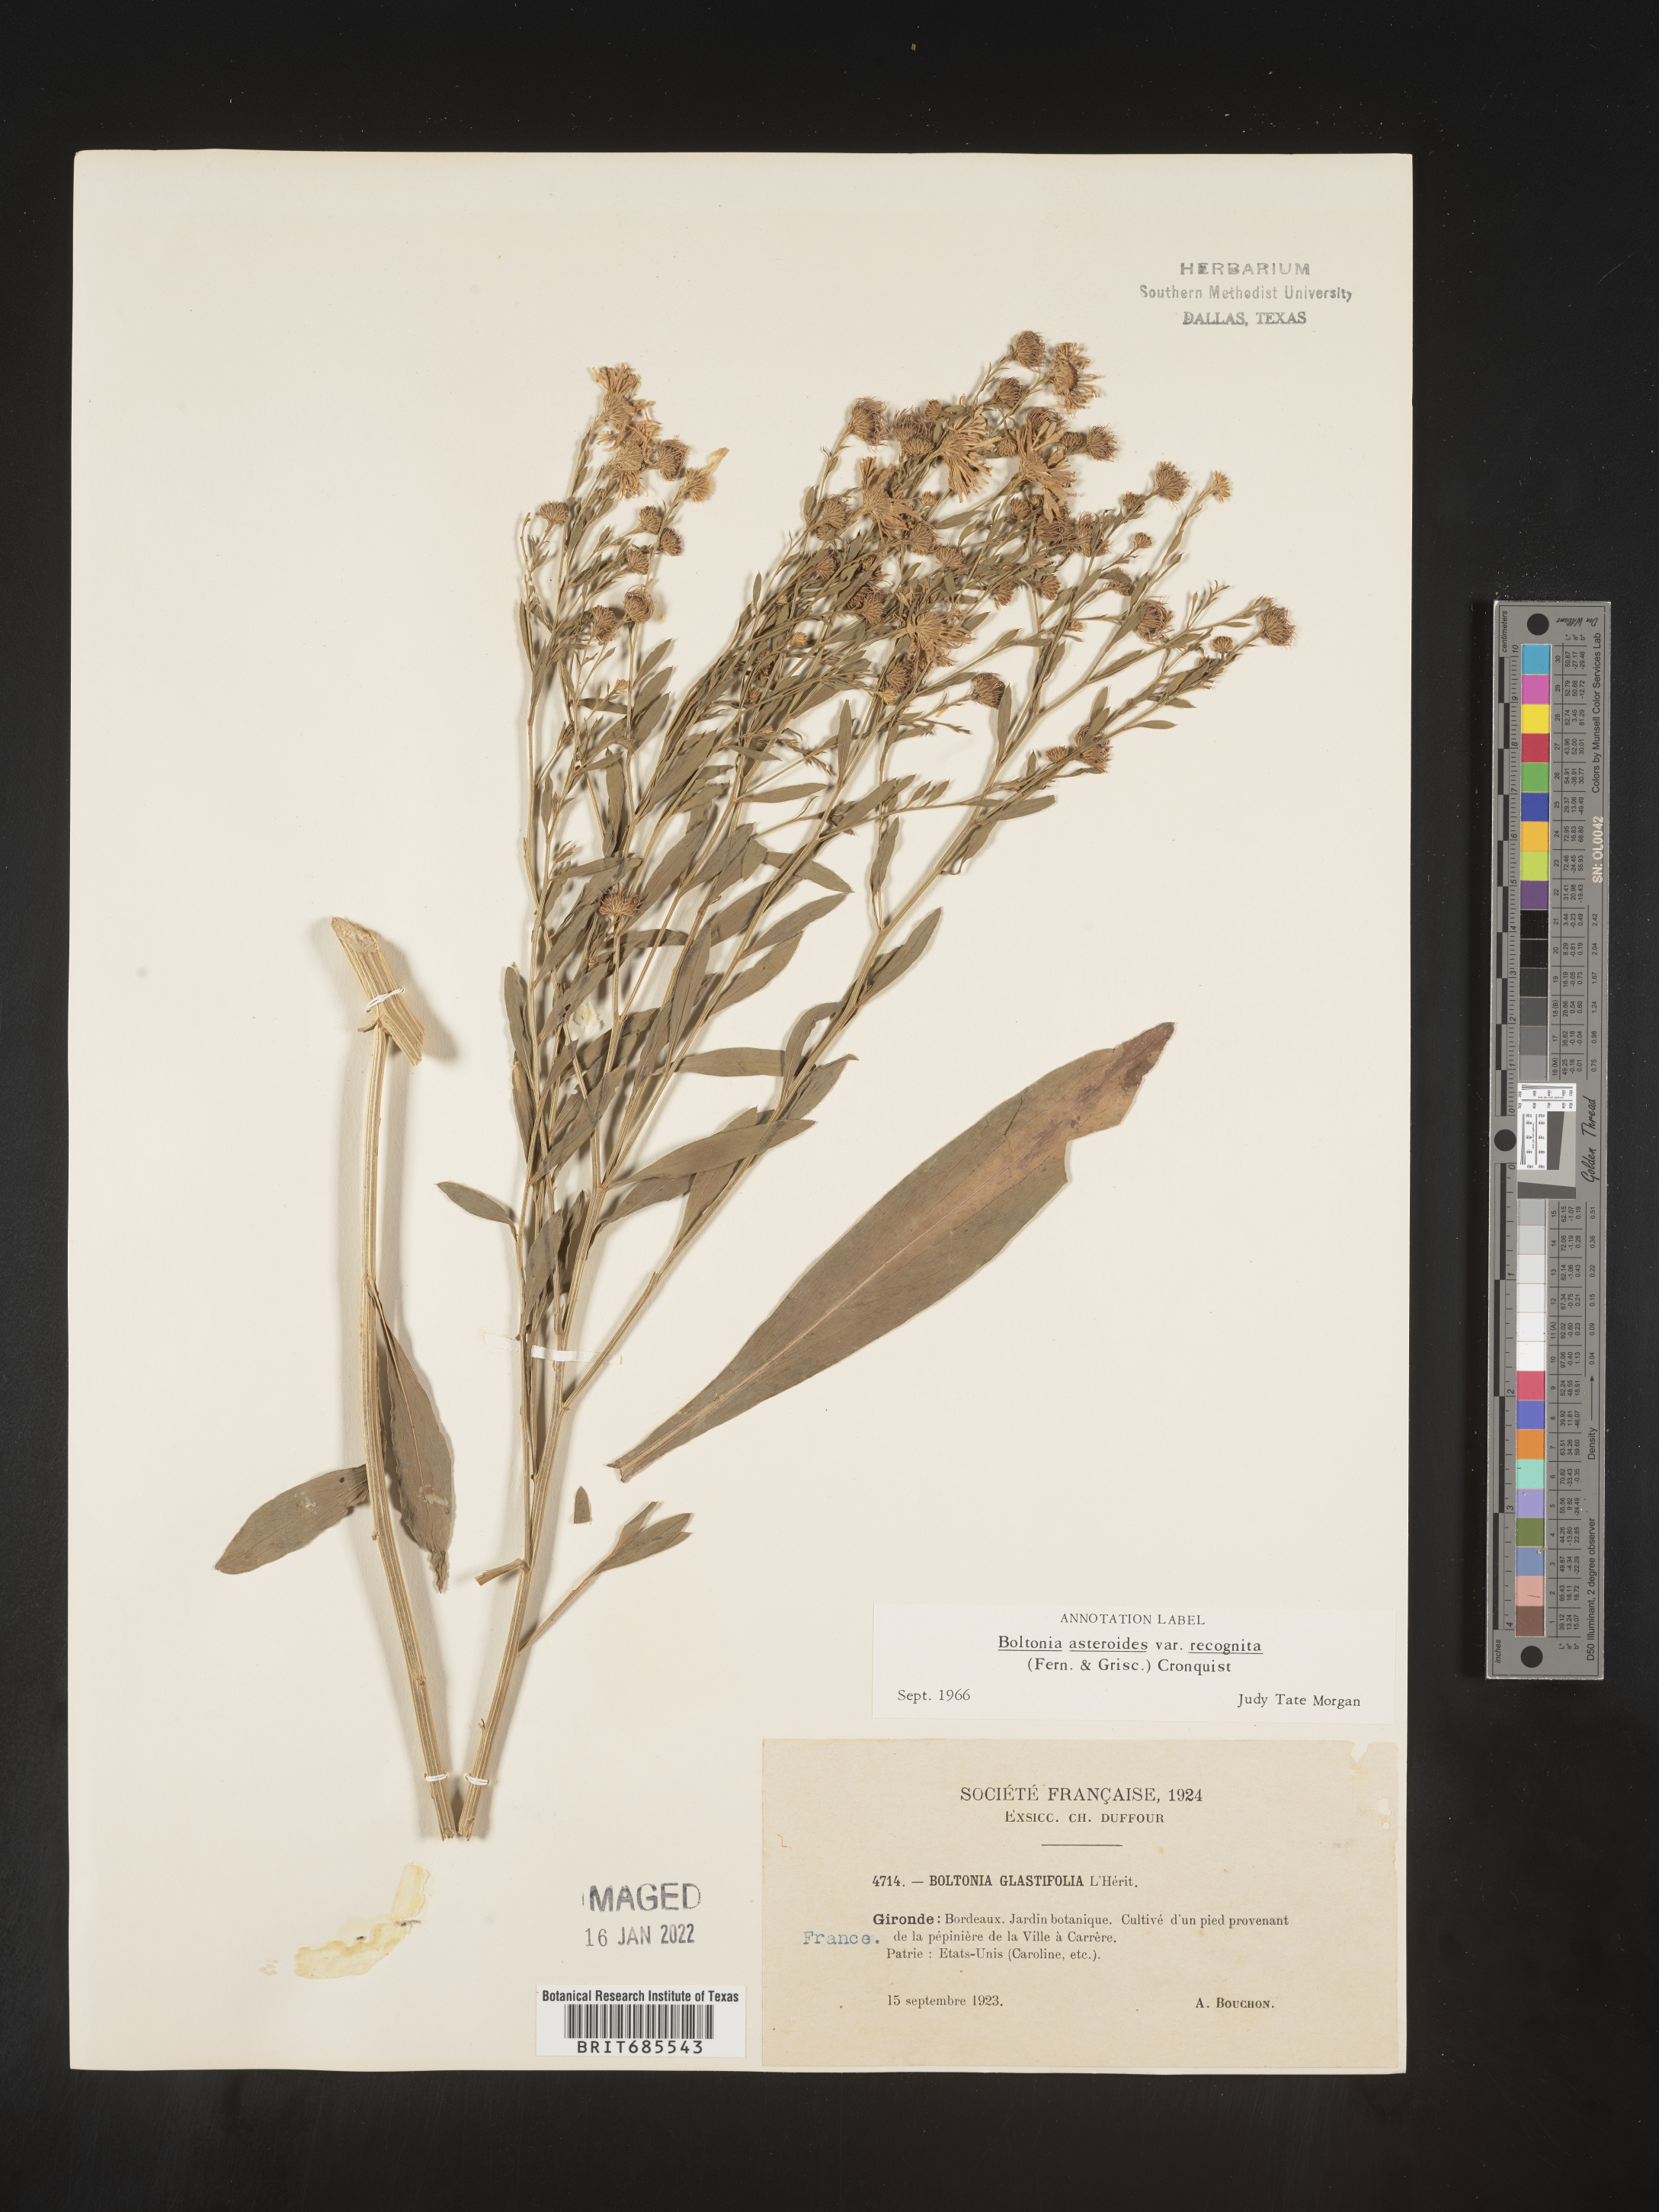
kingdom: Plantae
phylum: Tracheophyta
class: Magnoliopsida
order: Asterales
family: Asteraceae
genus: Boltonia
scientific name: Boltonia
